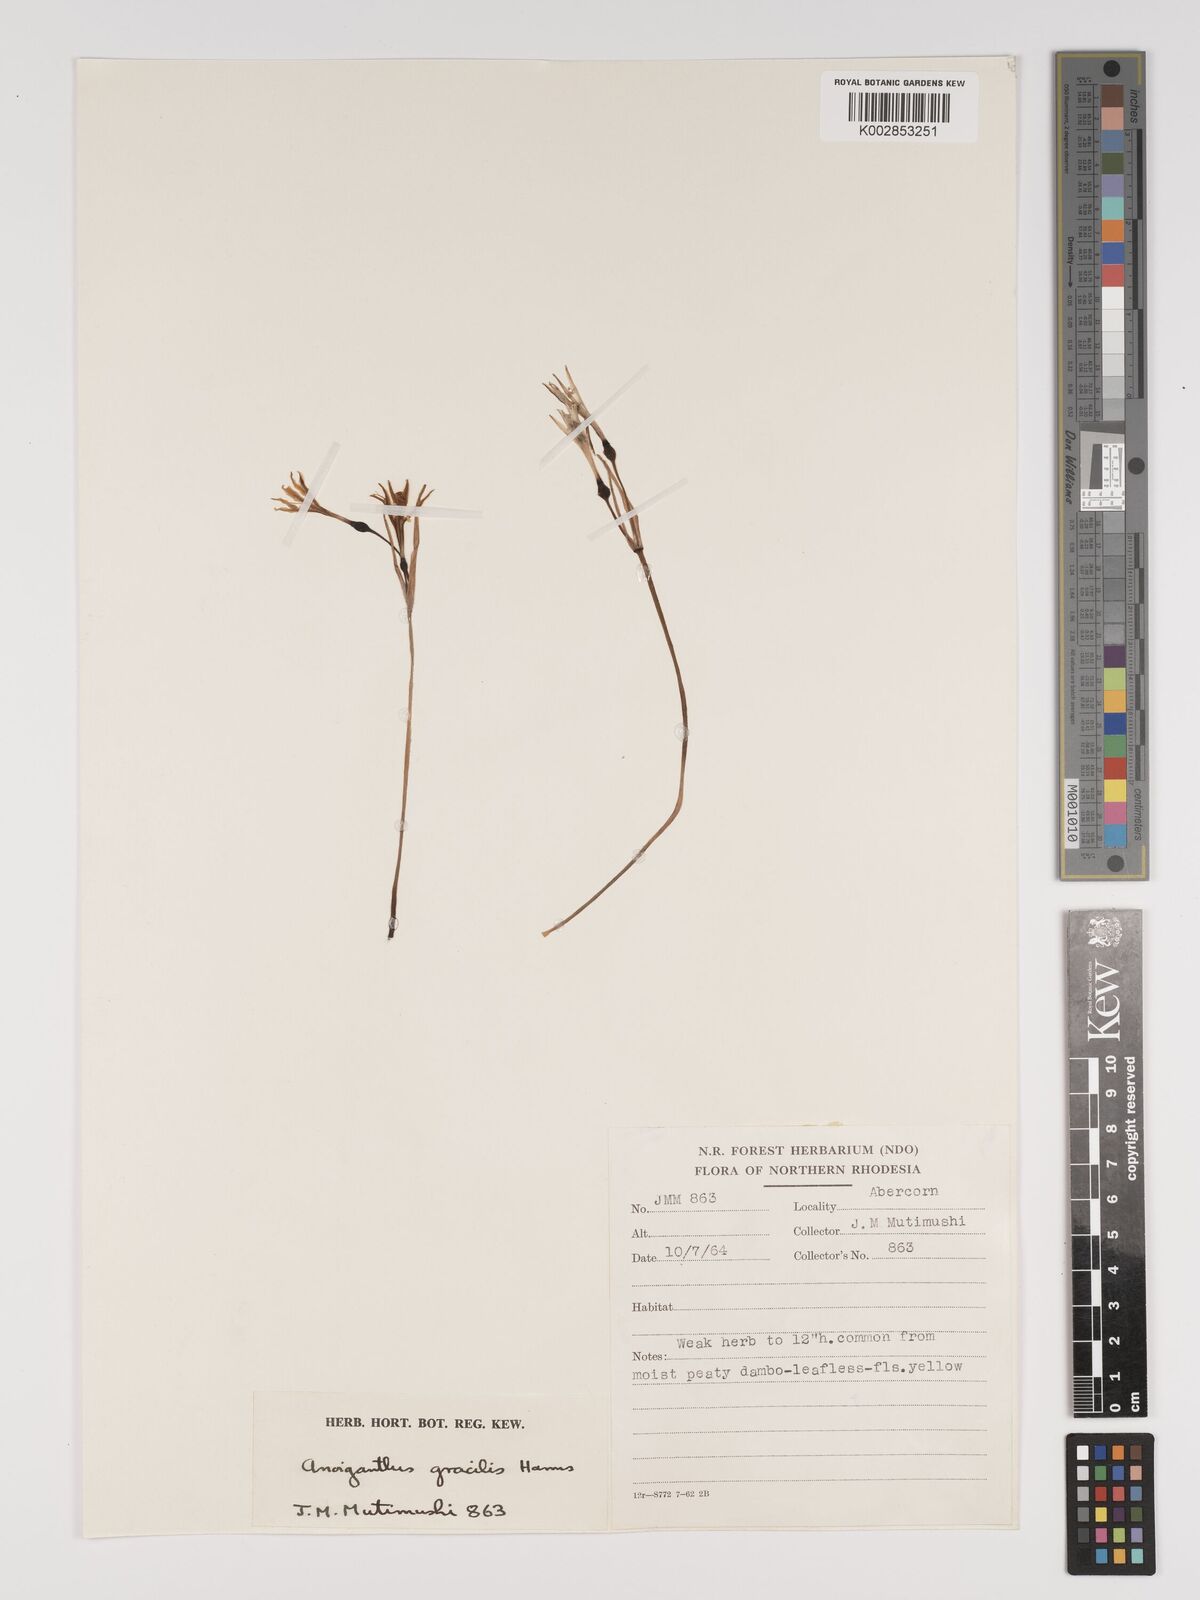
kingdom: Plantae
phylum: Tracheophyta
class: Liliopsida
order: Asparagales
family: Amaryllidaceae
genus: Cyrtanthus
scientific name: Cyrtanthus breviflorus
